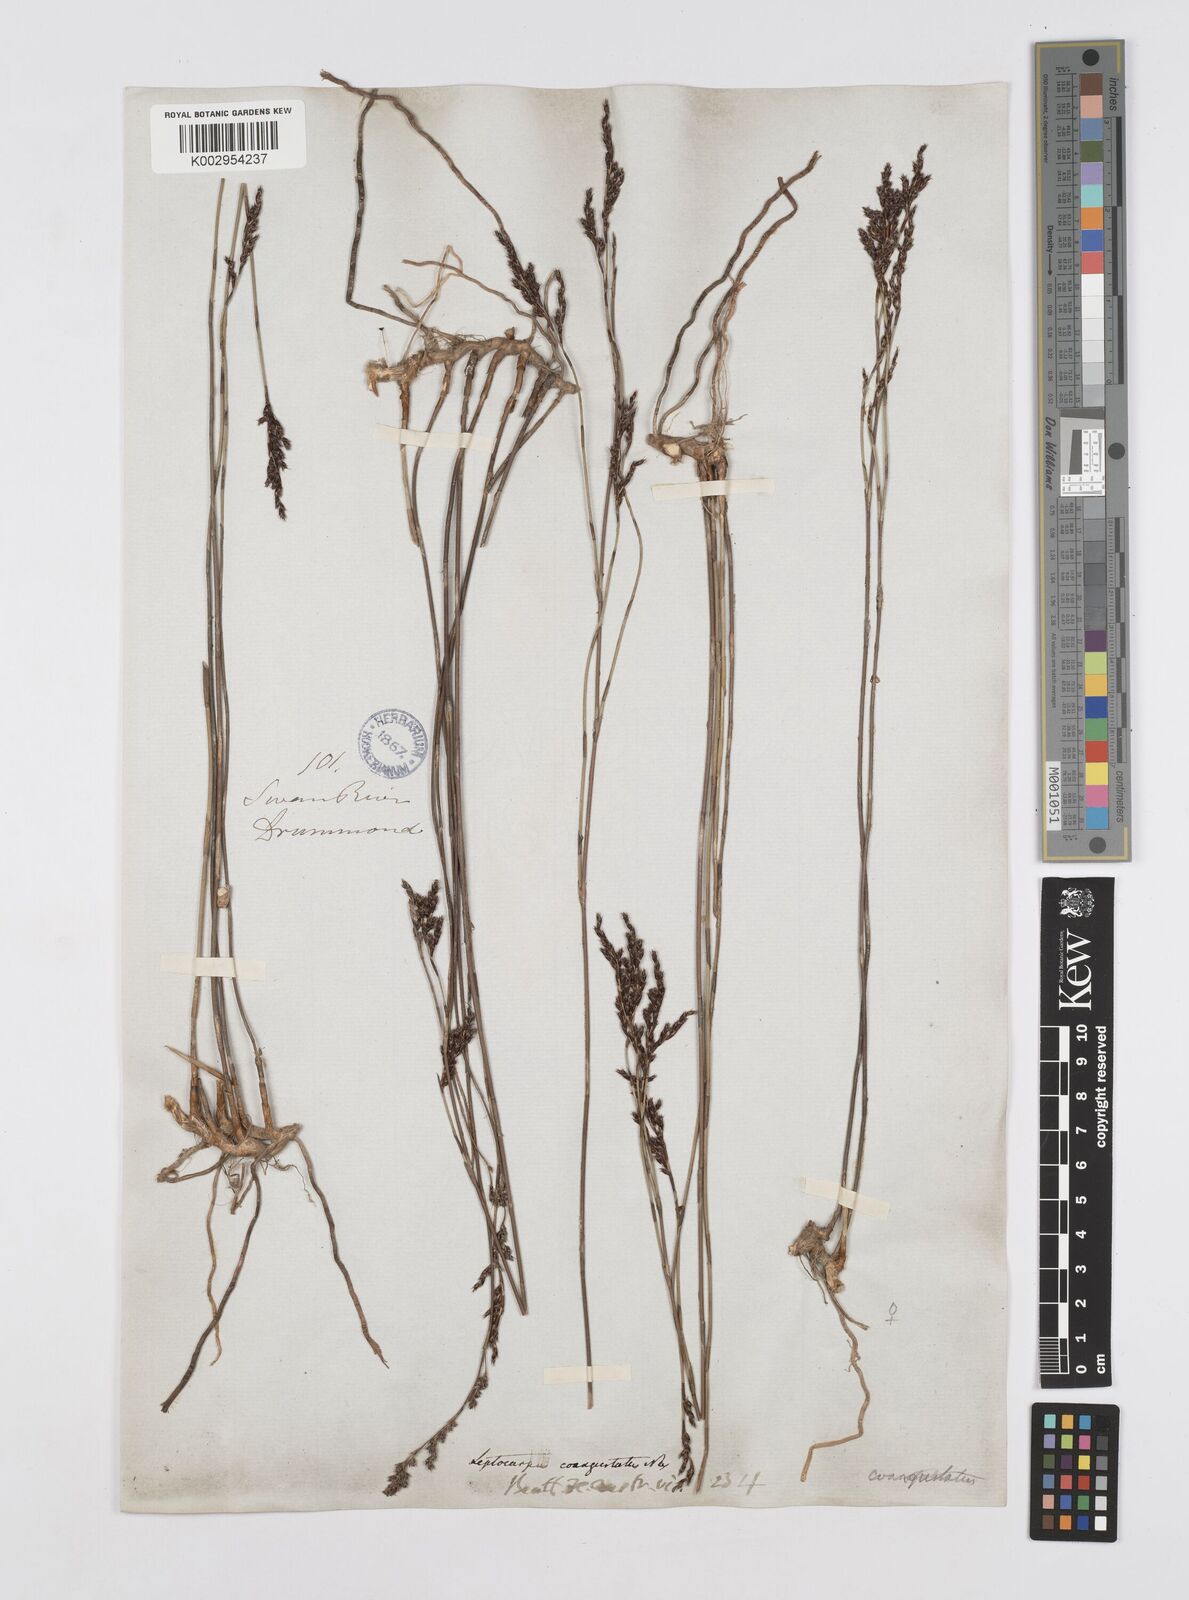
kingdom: Plantae
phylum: Tracheophyta
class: Liliopsida
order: Poales
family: Restionaceae
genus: Leptocarpus
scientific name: Leptocarpus coangustatus
